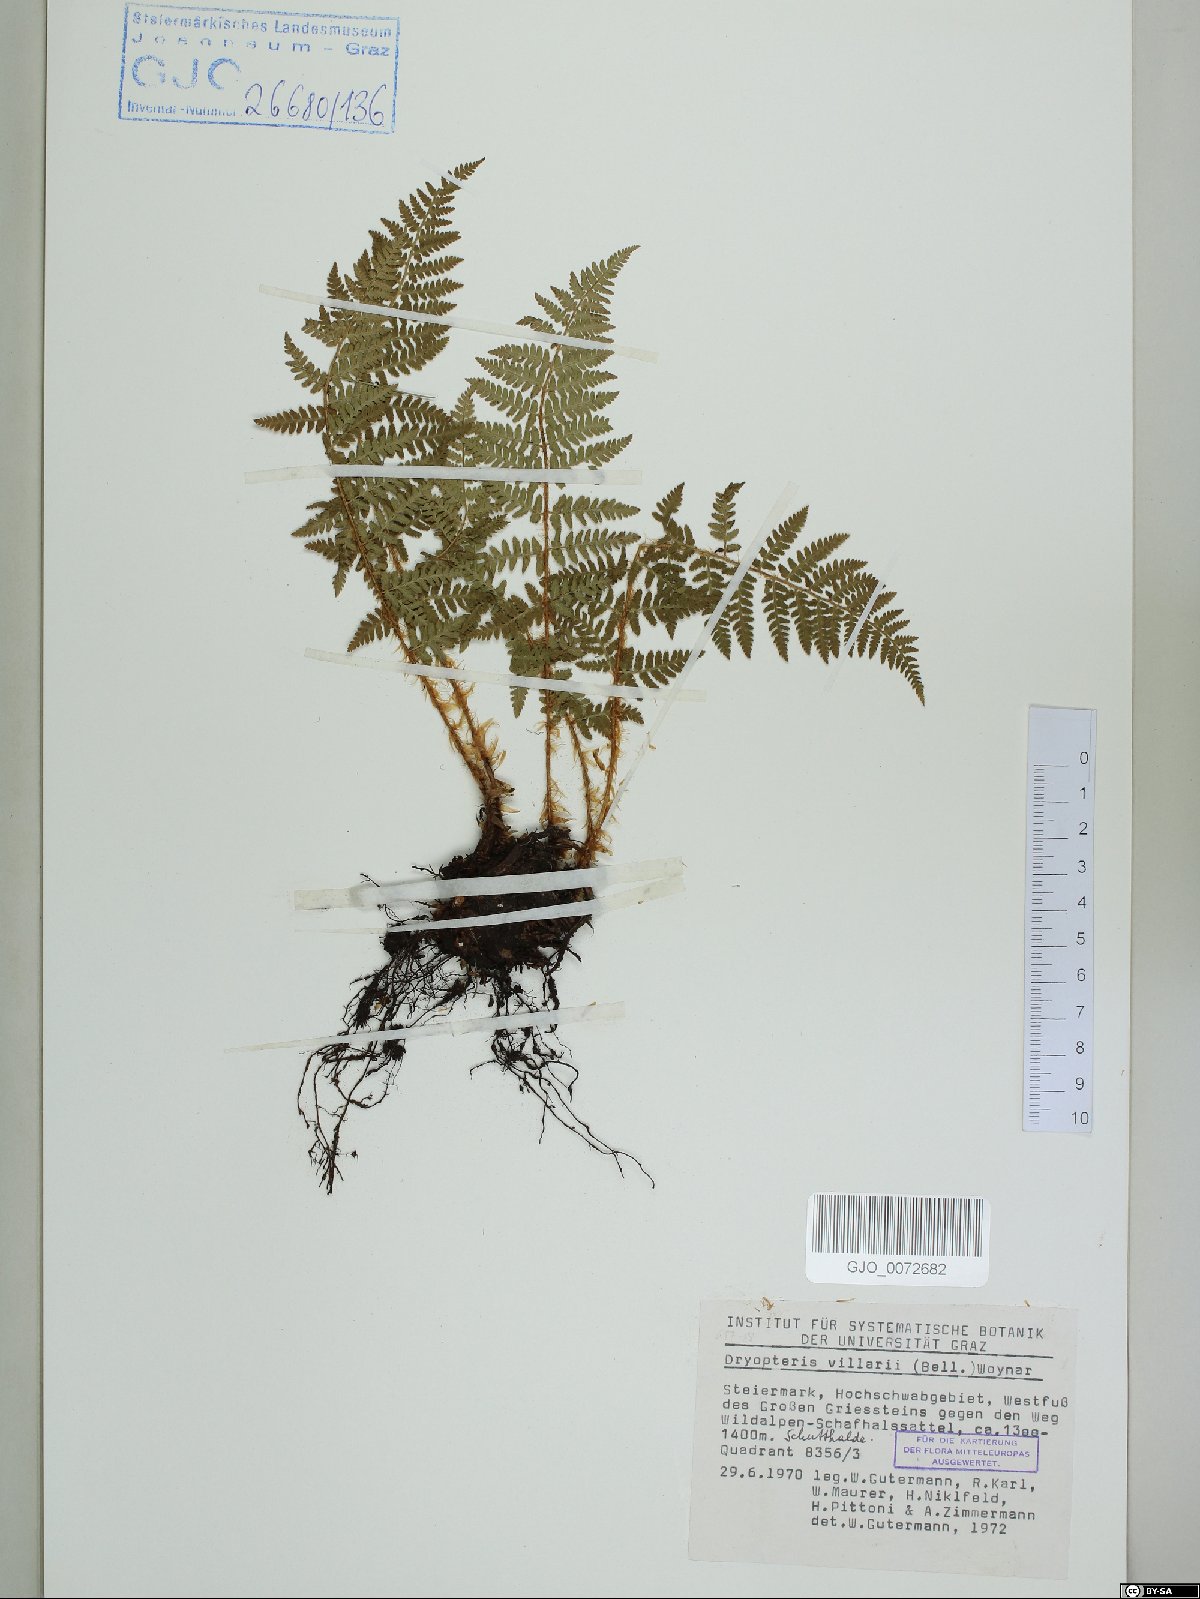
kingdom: Plantae
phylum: Tracheophyta
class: Polypodiopsida
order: Polypodiales
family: Dryopteridaceae
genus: Dryopteris
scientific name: Dryopteris villarii
